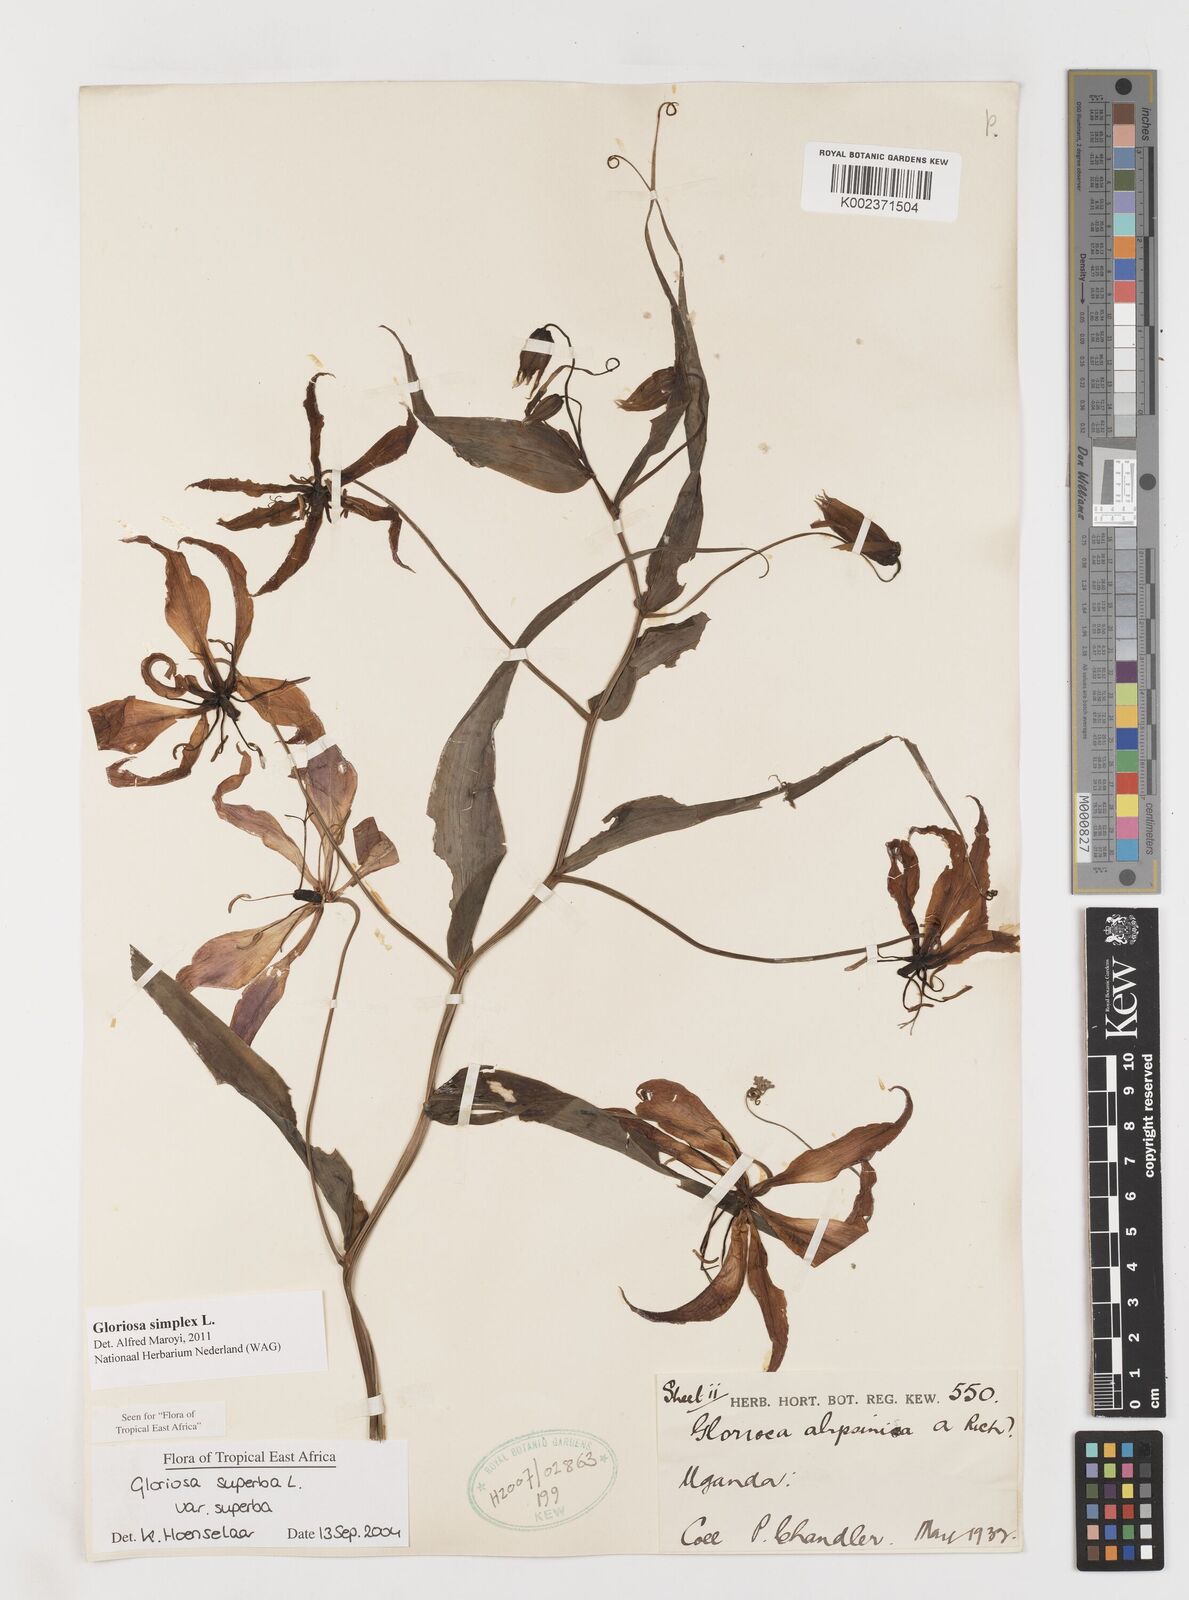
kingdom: Plantae
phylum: Tracheophyta
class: Liliopsida
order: Liliales
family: Colchicaceae
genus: Gloriosa
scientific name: Gloriosa simplex
